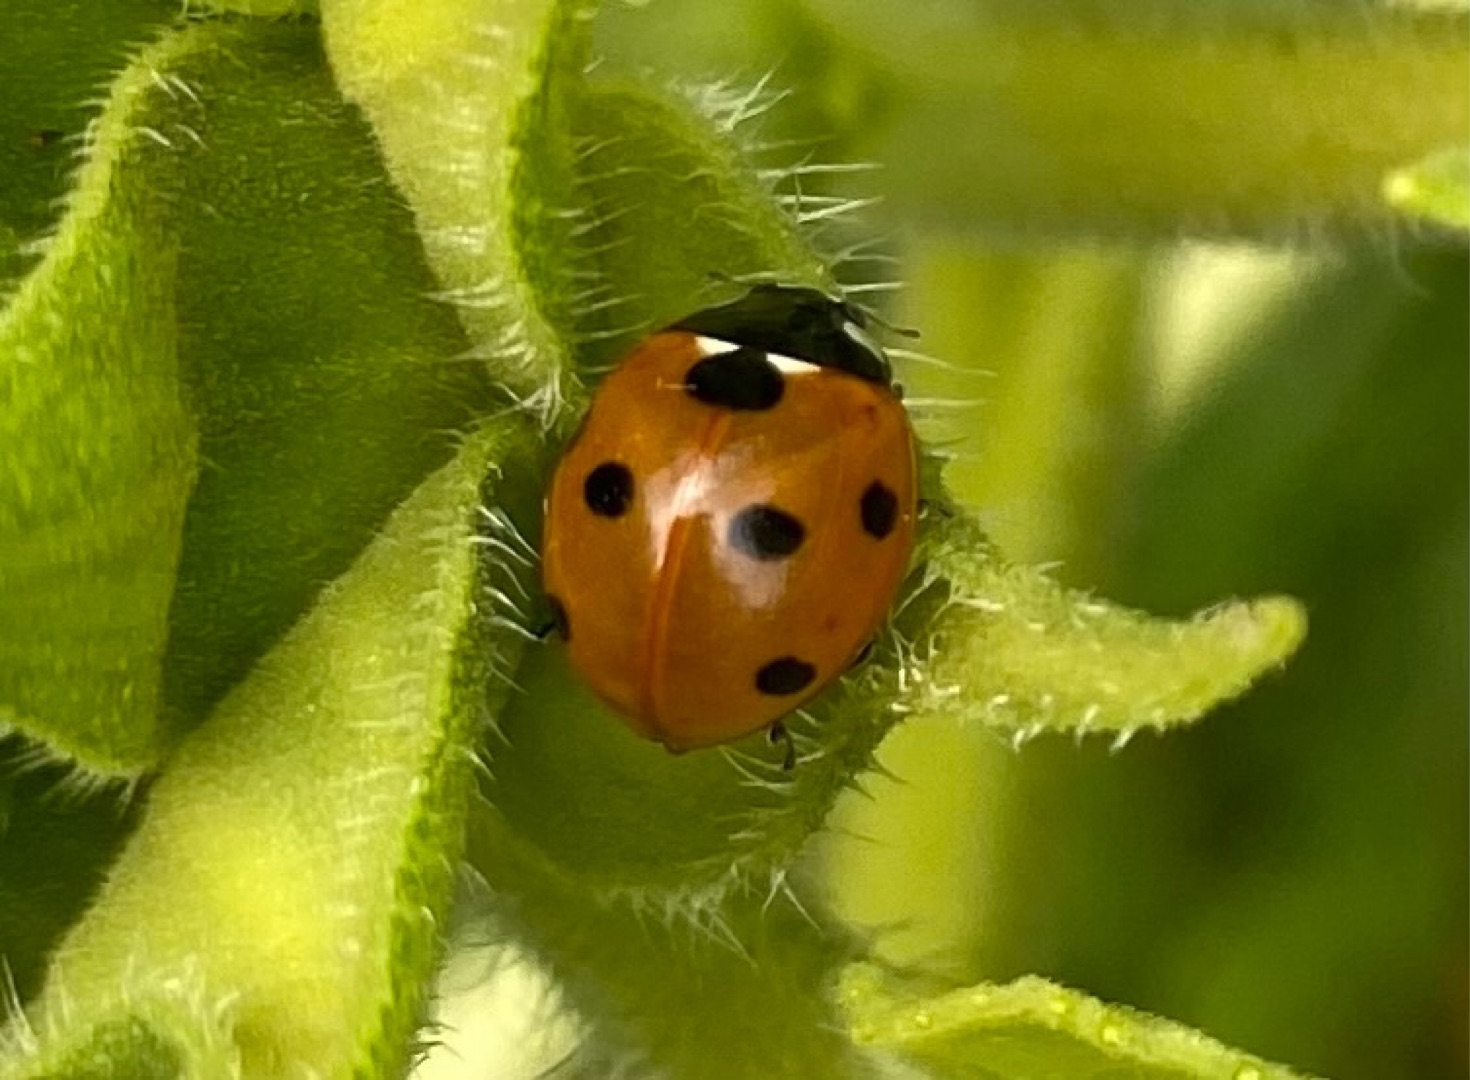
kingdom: Animalia
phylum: Arthropoda
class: Insecta
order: Coleoptera
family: Coccinellidae
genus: Coccinella
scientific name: Coccinella septempunctata
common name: Syvplettet mariehøne
